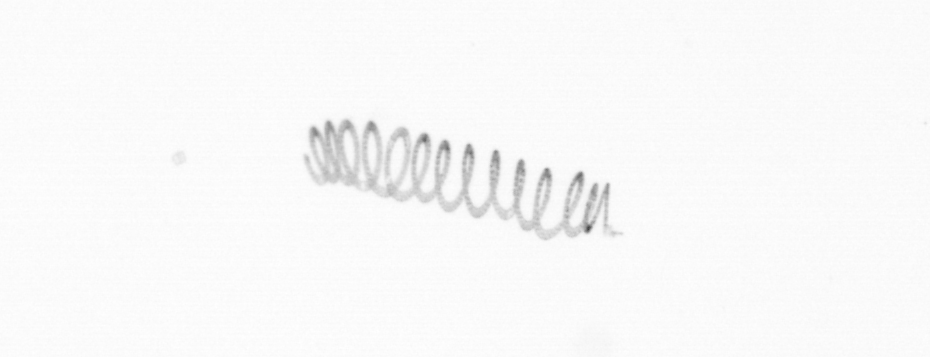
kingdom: Chromista
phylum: Ochrophyta
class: Bacillariophyceae
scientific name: Bacillariophyceae
